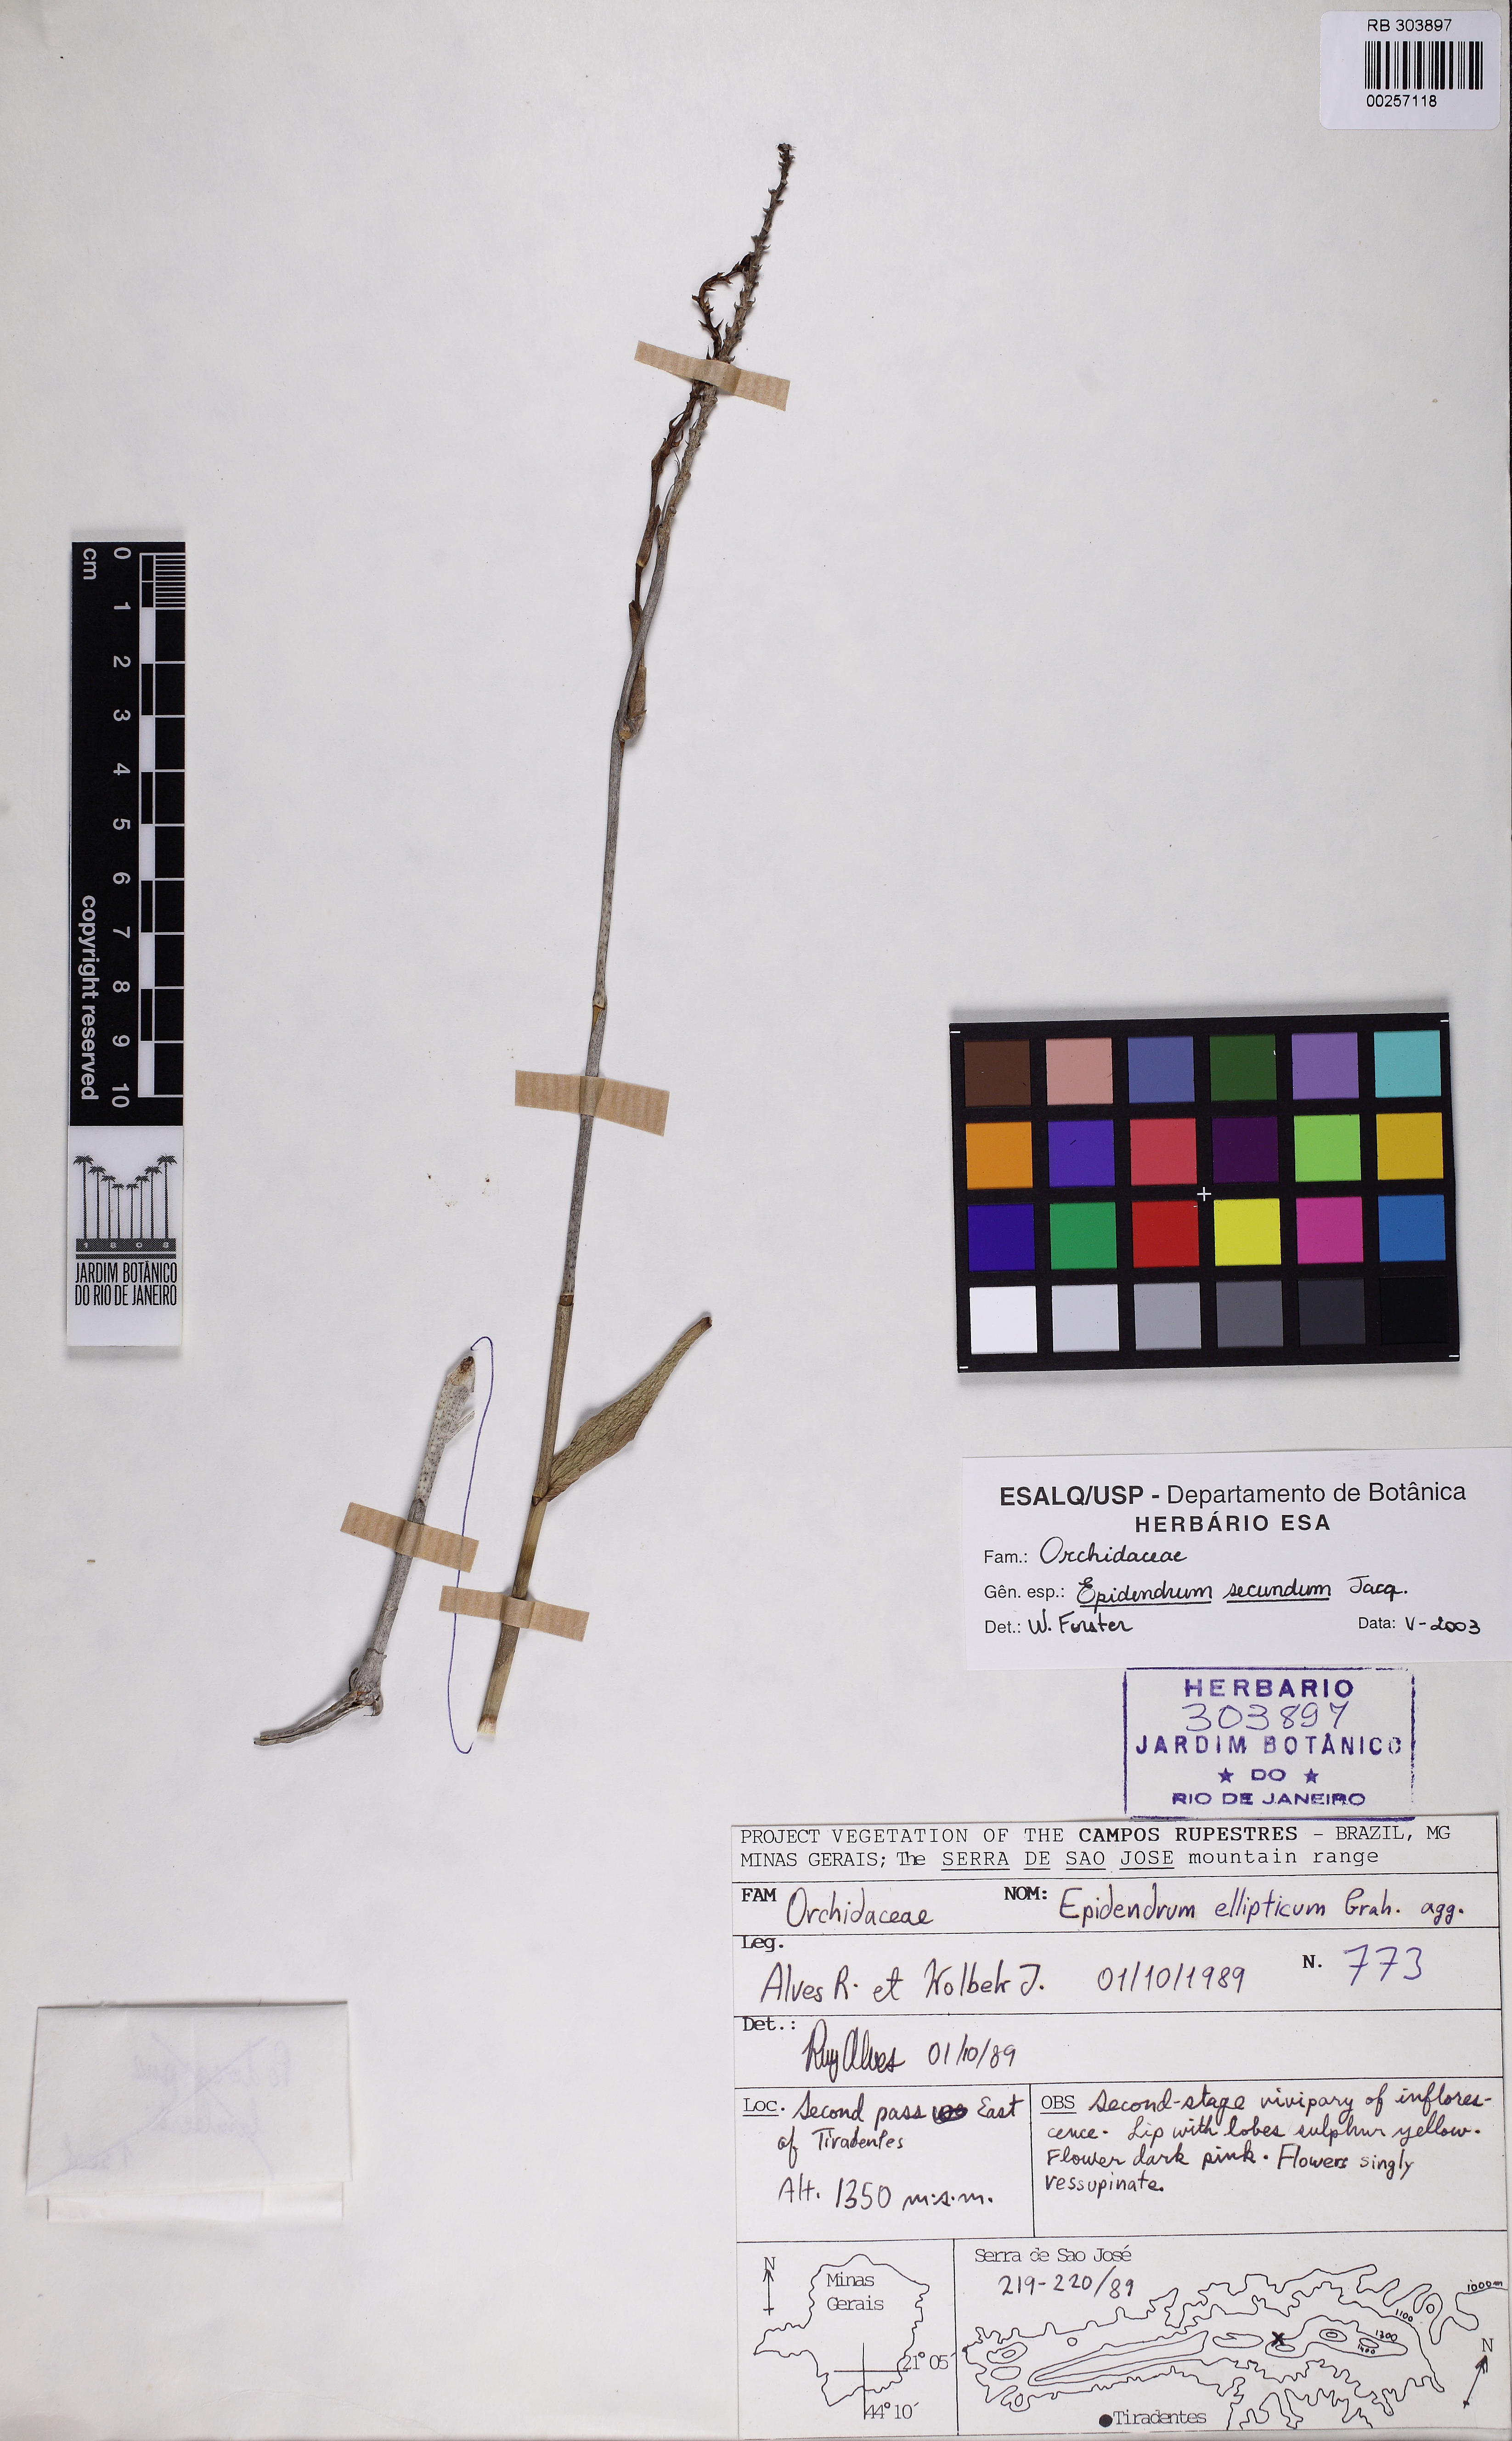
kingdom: Plantae
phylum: Tracheophyta
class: Liliopsida
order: Asparagales
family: Orchidaceae
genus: Epidendrum
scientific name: Epidendrum secundum
